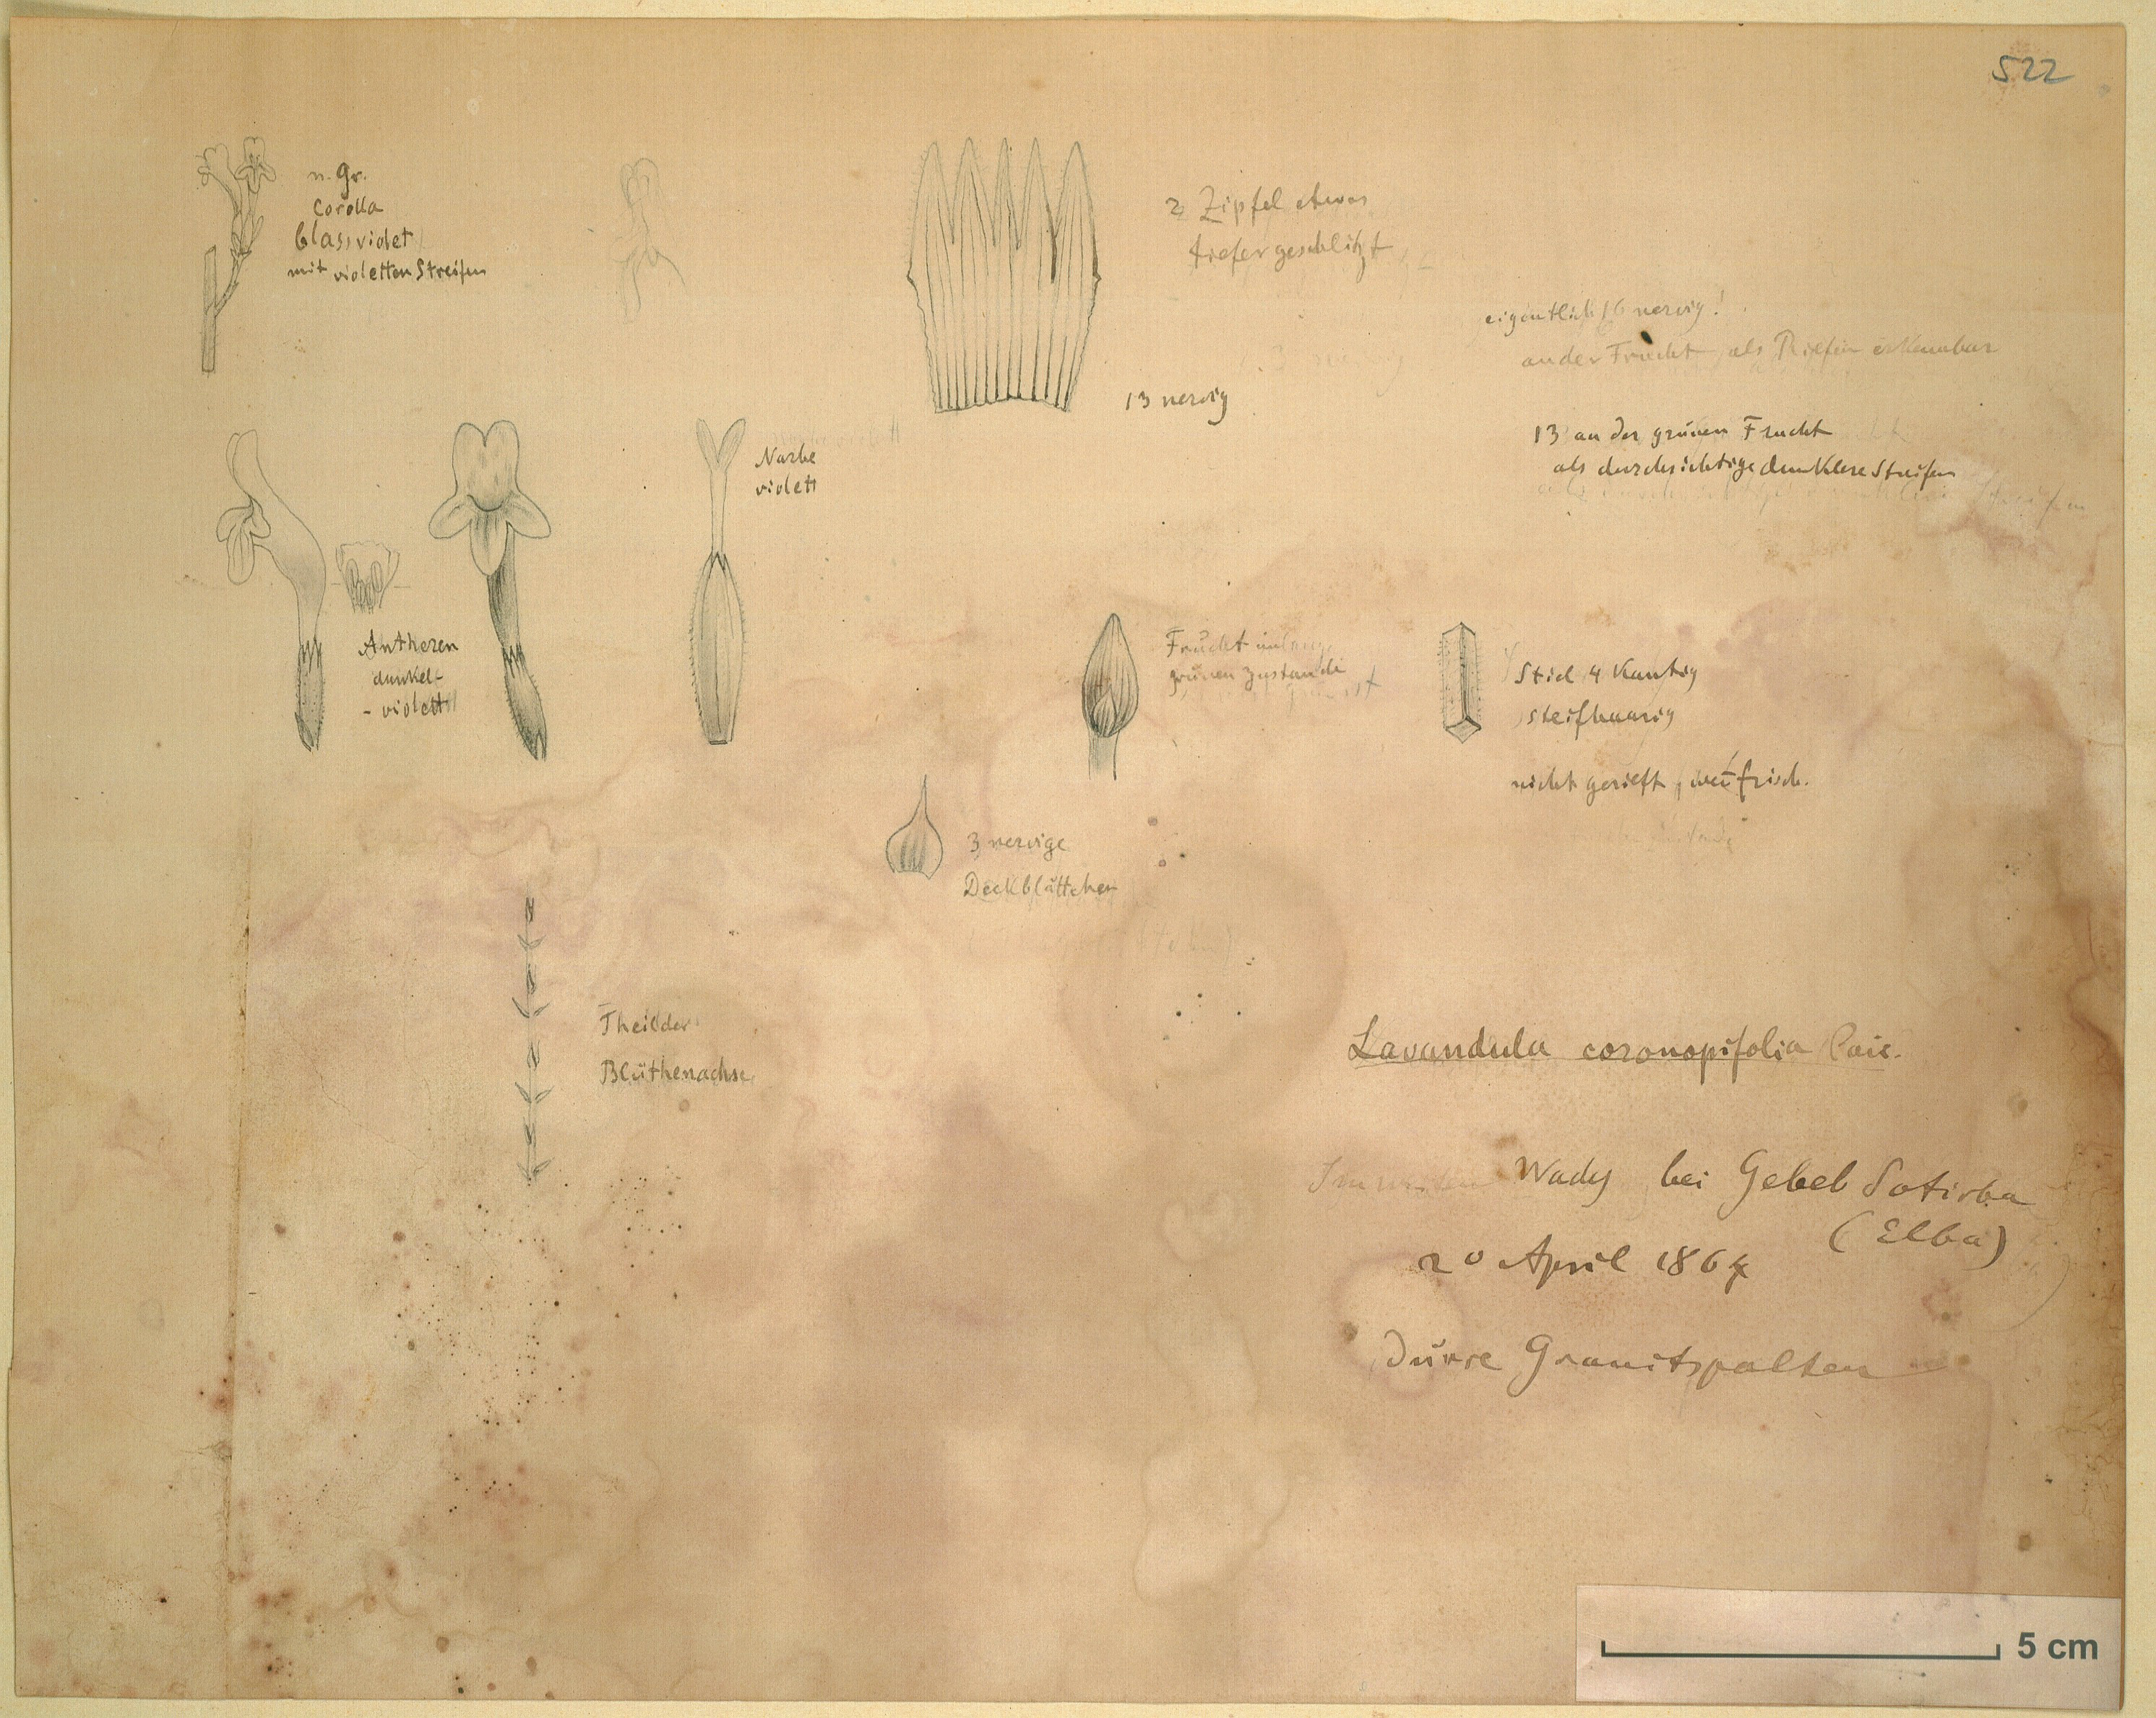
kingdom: Plantae
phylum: Tracheophyta
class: Magnoliopsida
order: Lamiales
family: Lamiaceae
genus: Lavandula
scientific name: Lavandula coronopifolia
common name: Stagshorn lavender
